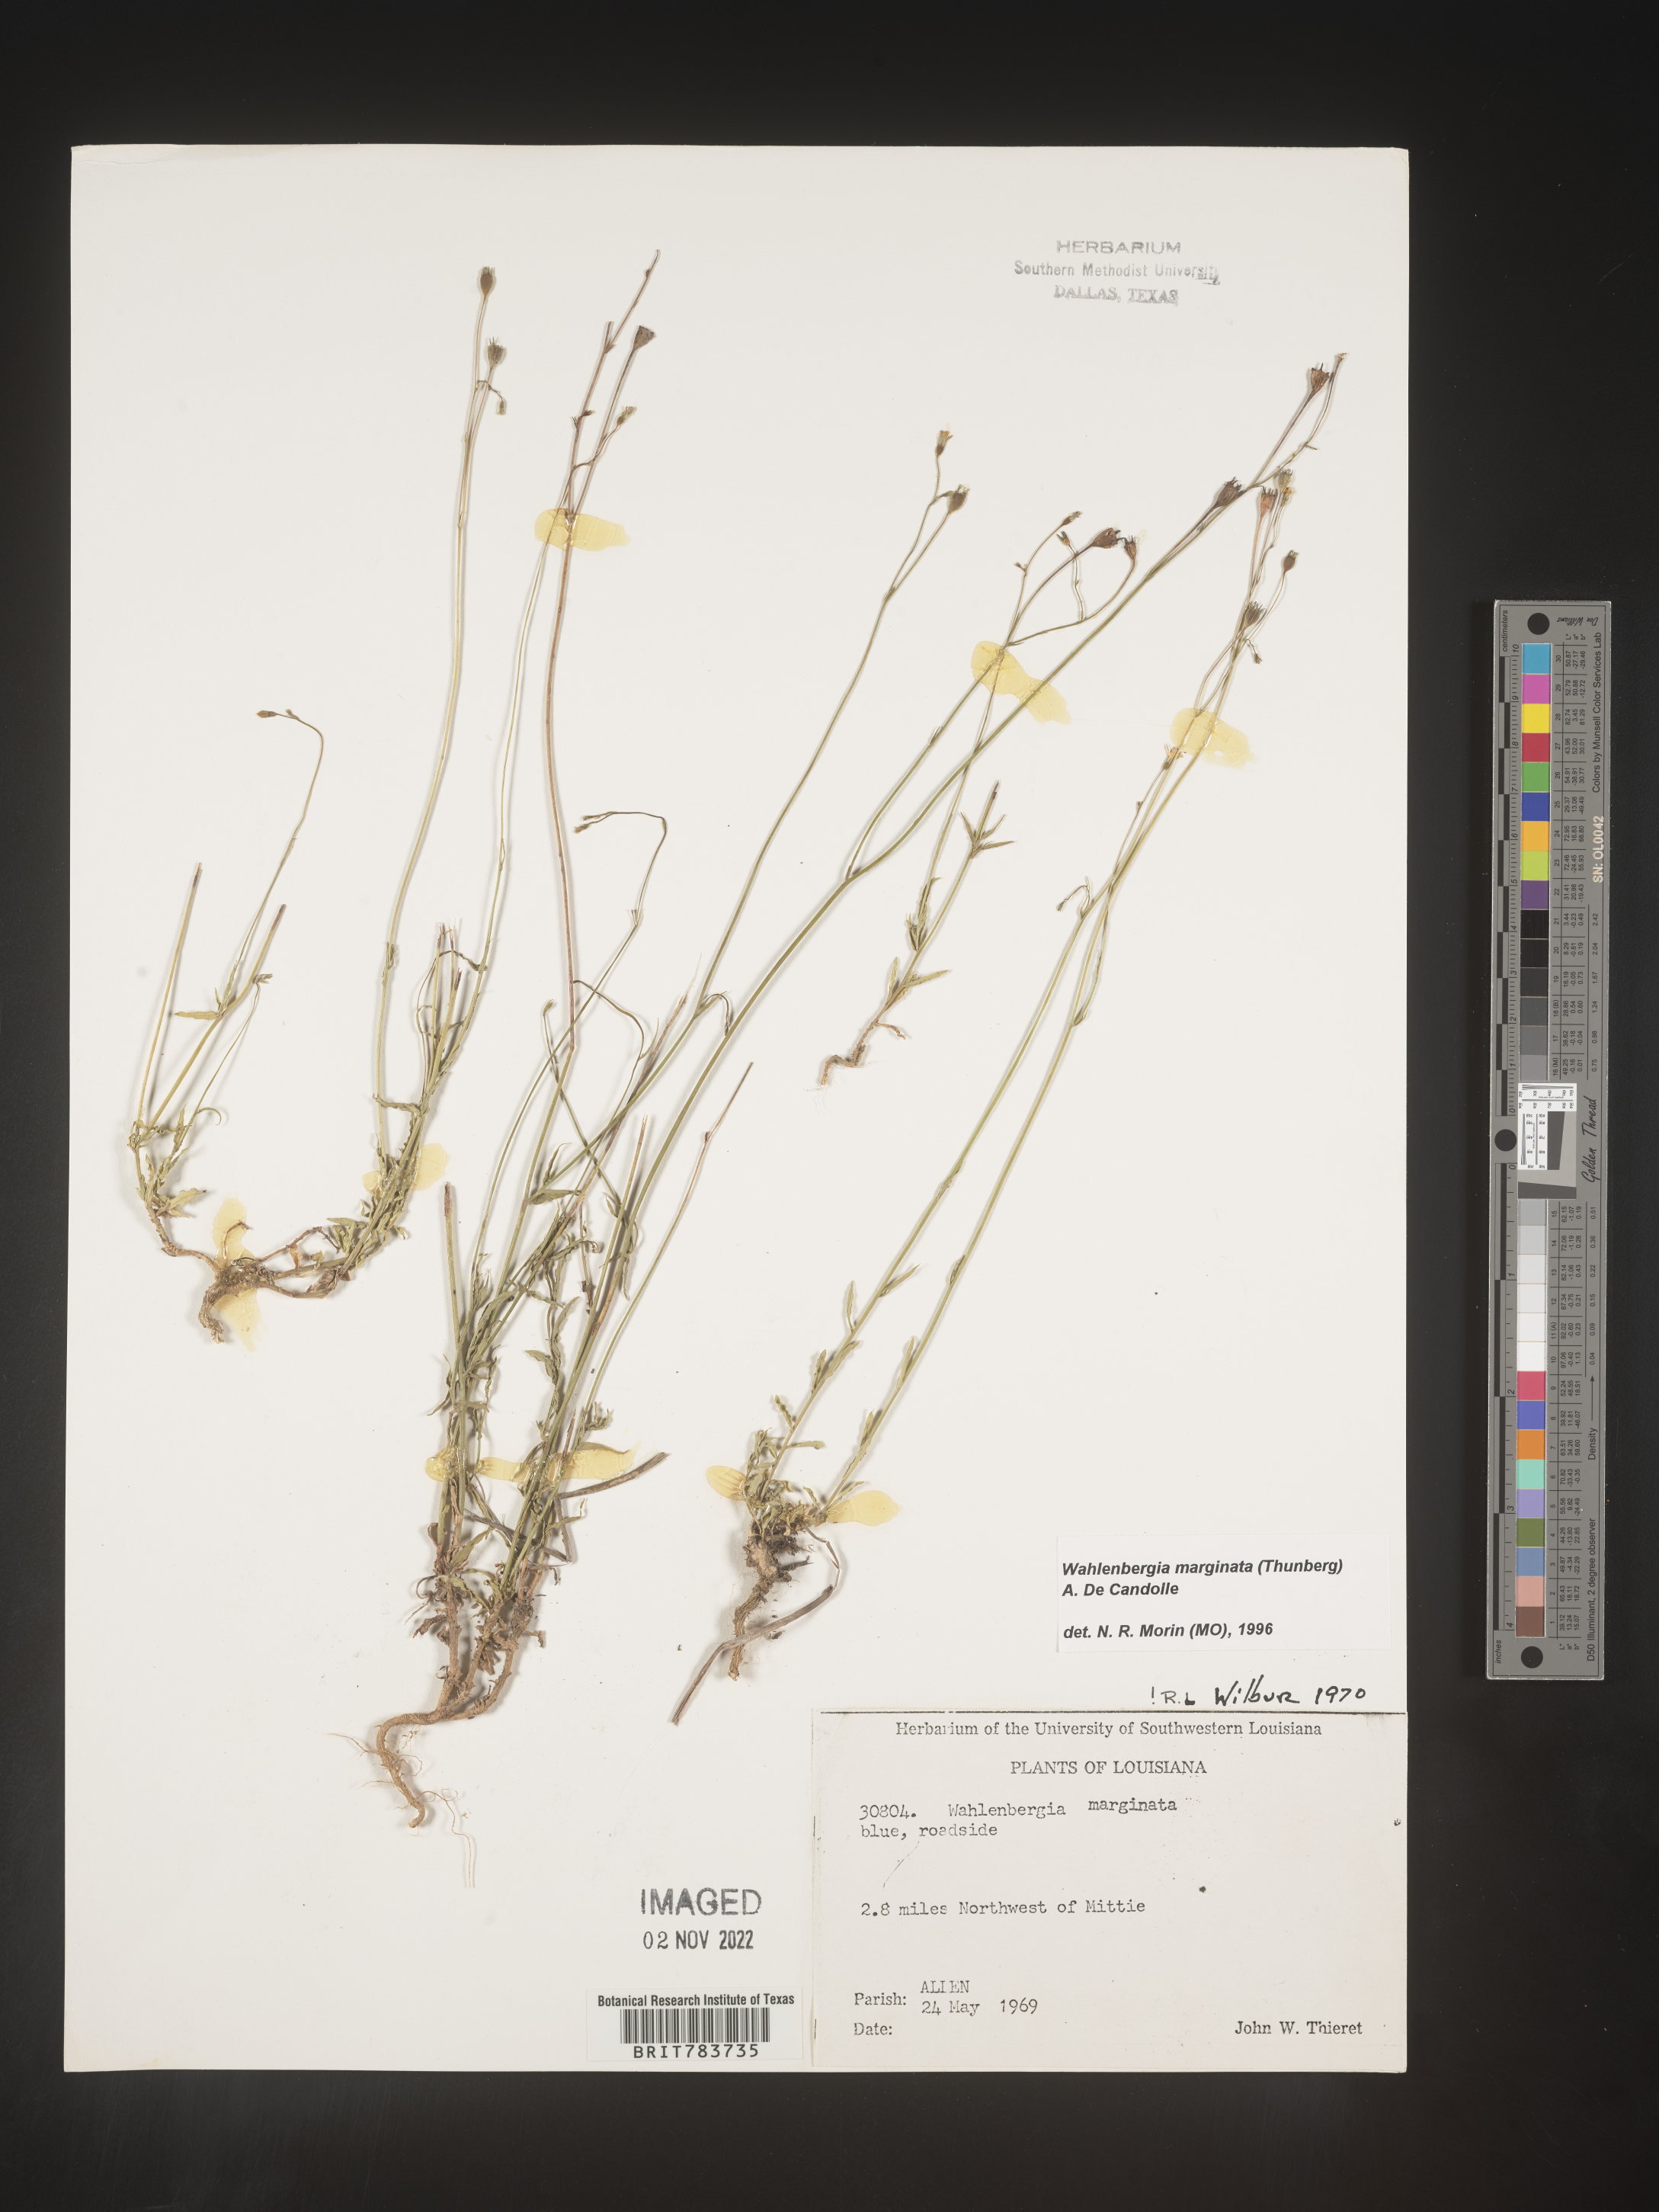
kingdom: Plantae
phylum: Tracheophyta
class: Magnoliopsida
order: Asterales
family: Campanulaceae
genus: Wahlenbergia
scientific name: Wahlenbergia marginata
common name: Southern rockbell
